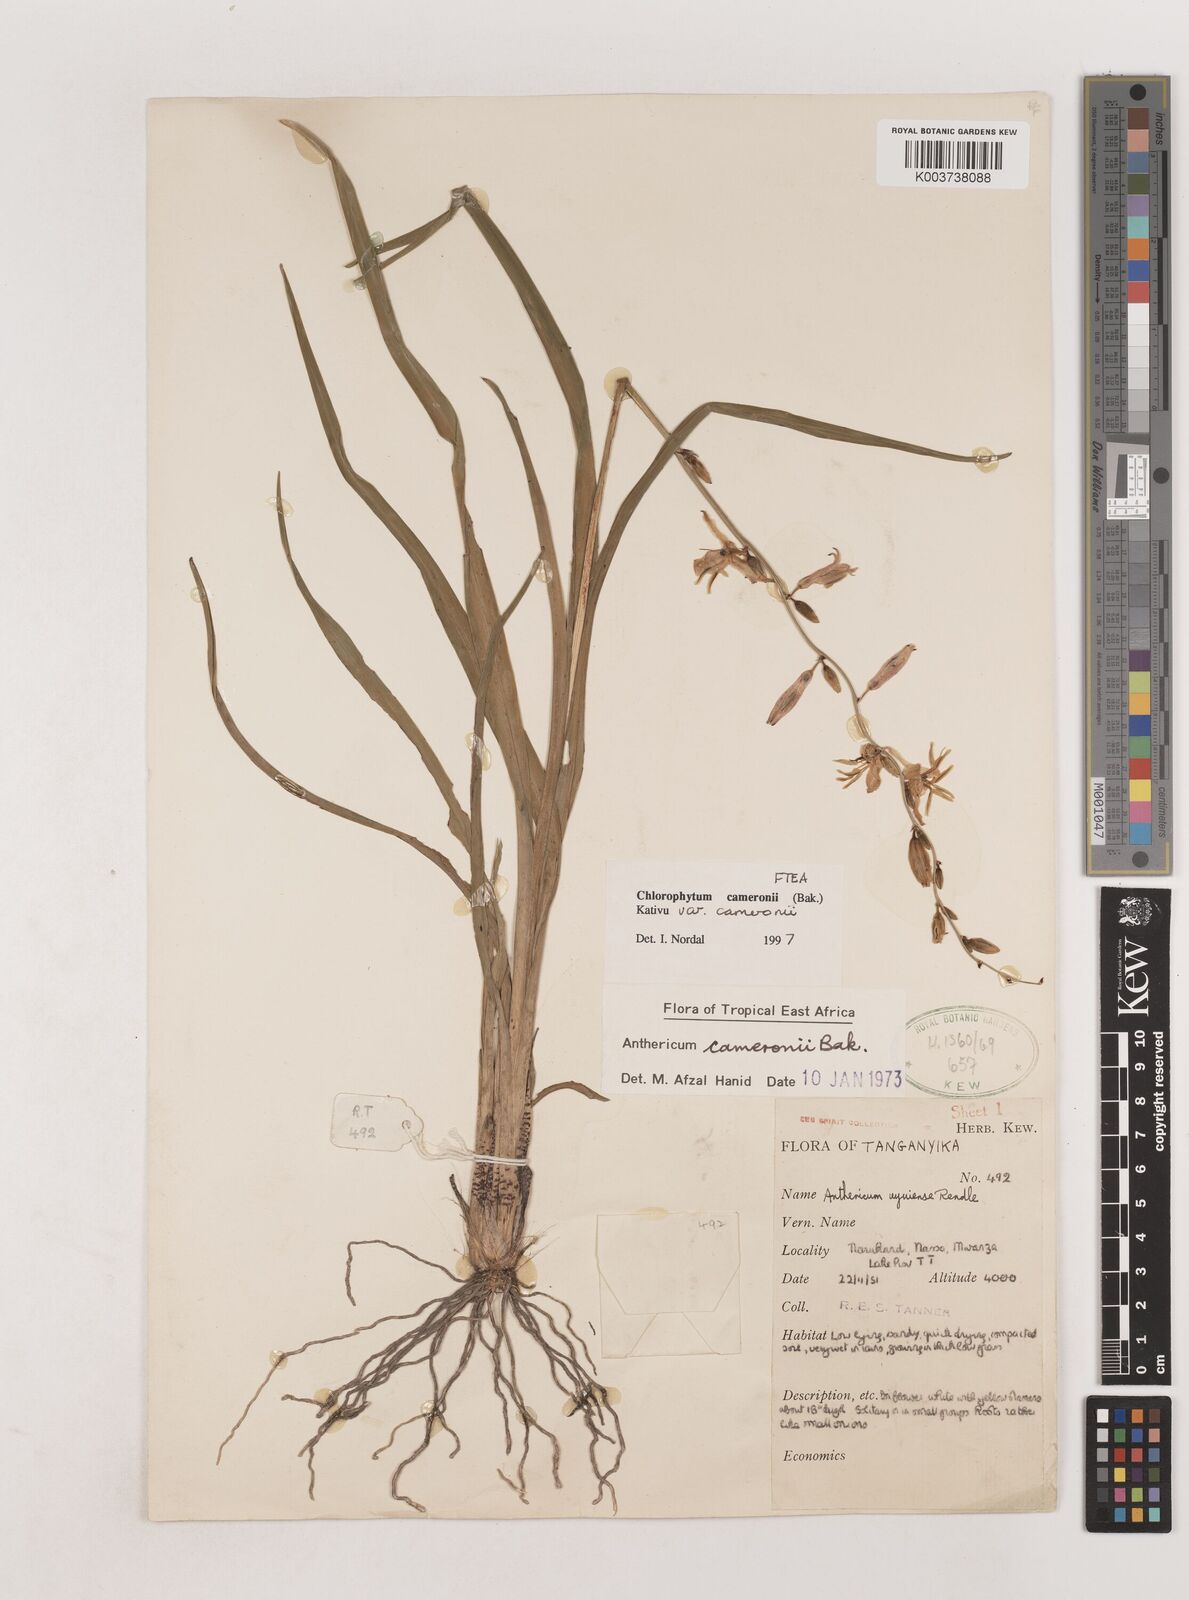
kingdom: Plantae
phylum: Tracheophyta
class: Liliopsida
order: Asparagales
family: Asparagaceae
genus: Chlorophytum
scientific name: Chlorophytum cameronii
